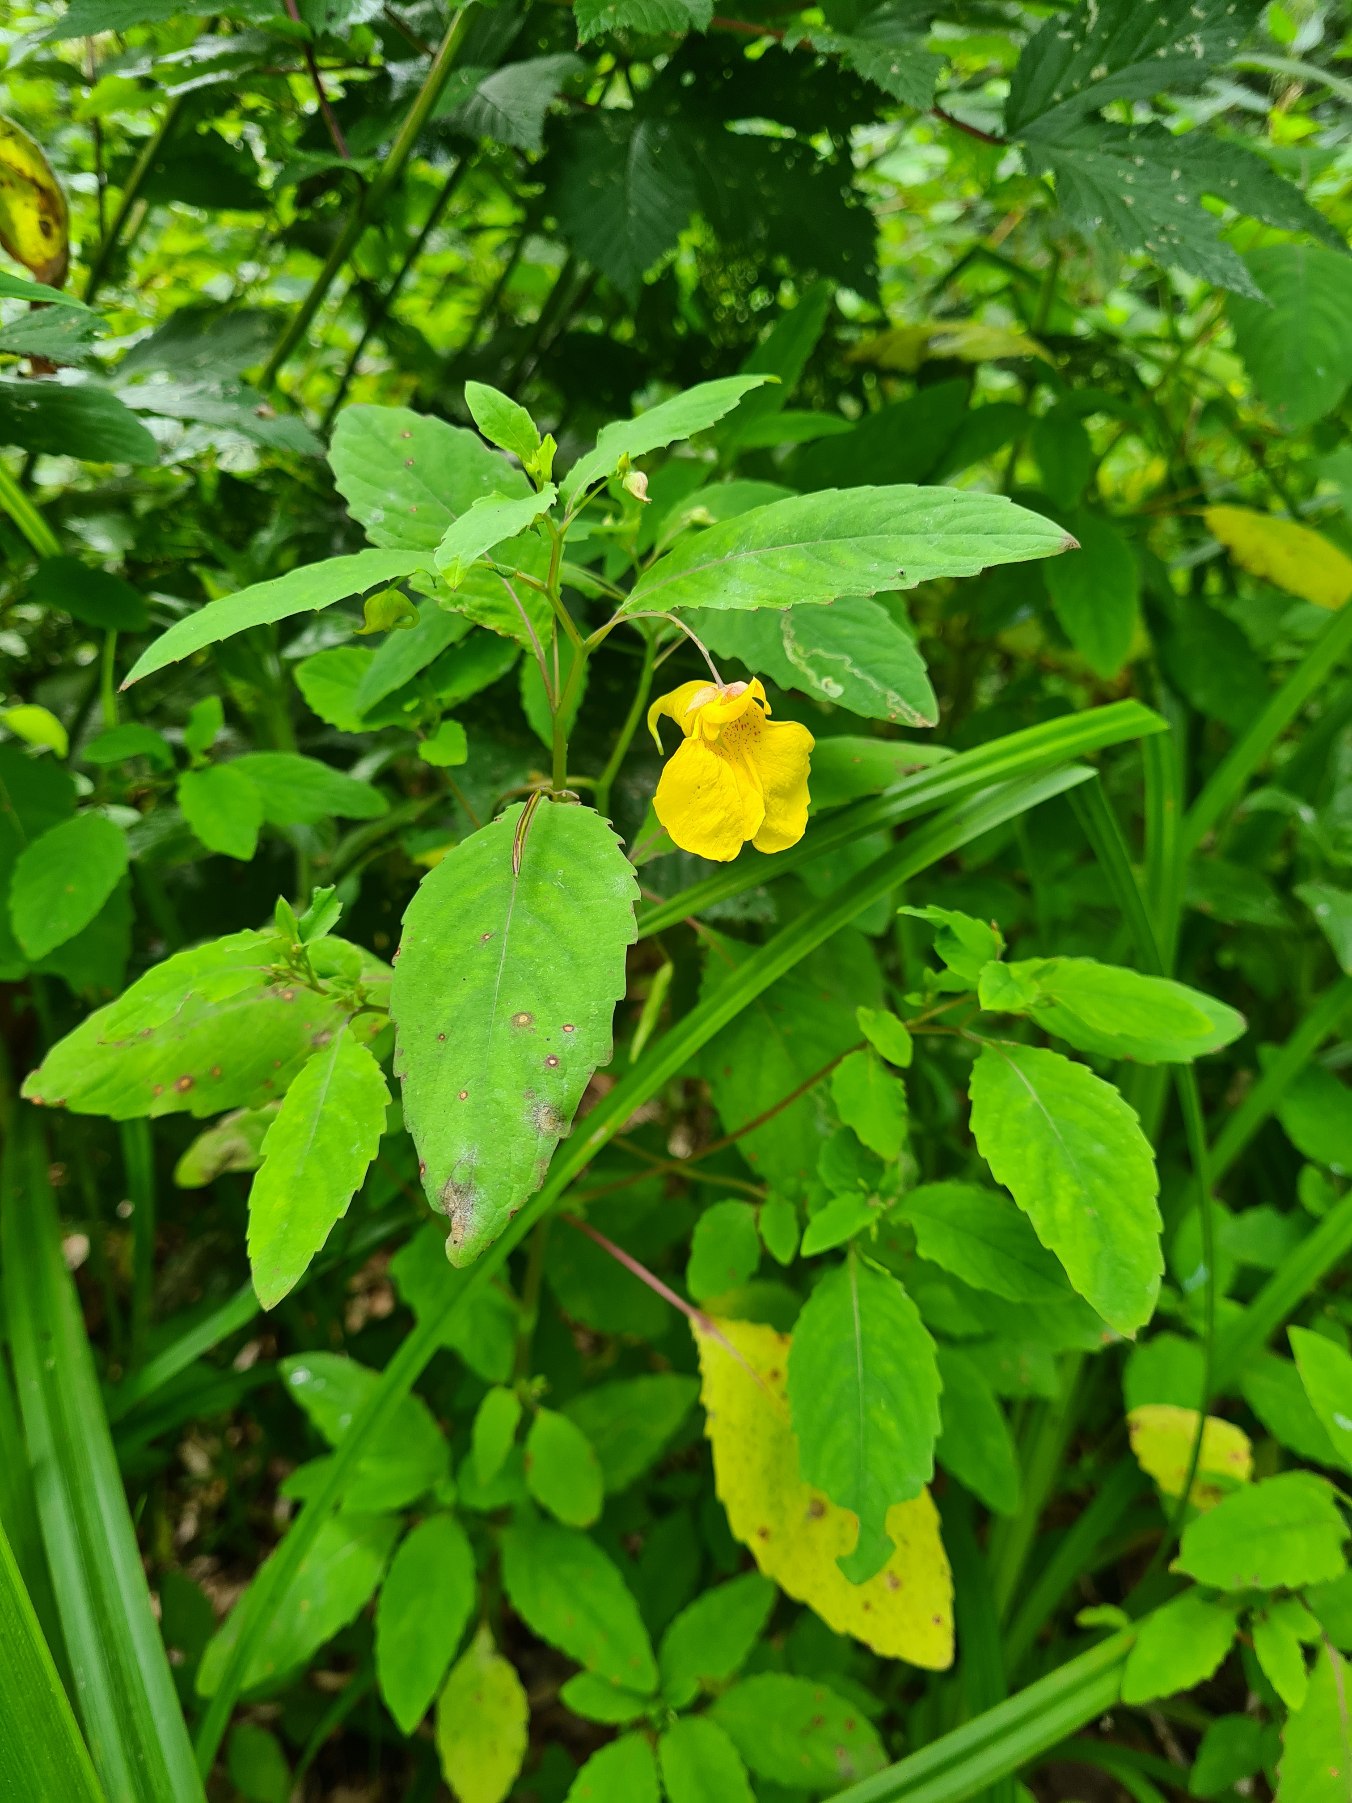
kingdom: Plantae
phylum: Tracheophyta
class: Magnoliopsida
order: Ericales
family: Balsaminaceae
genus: Impatiens
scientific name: Impatiens noli-tangere
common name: Spring-balsamin
